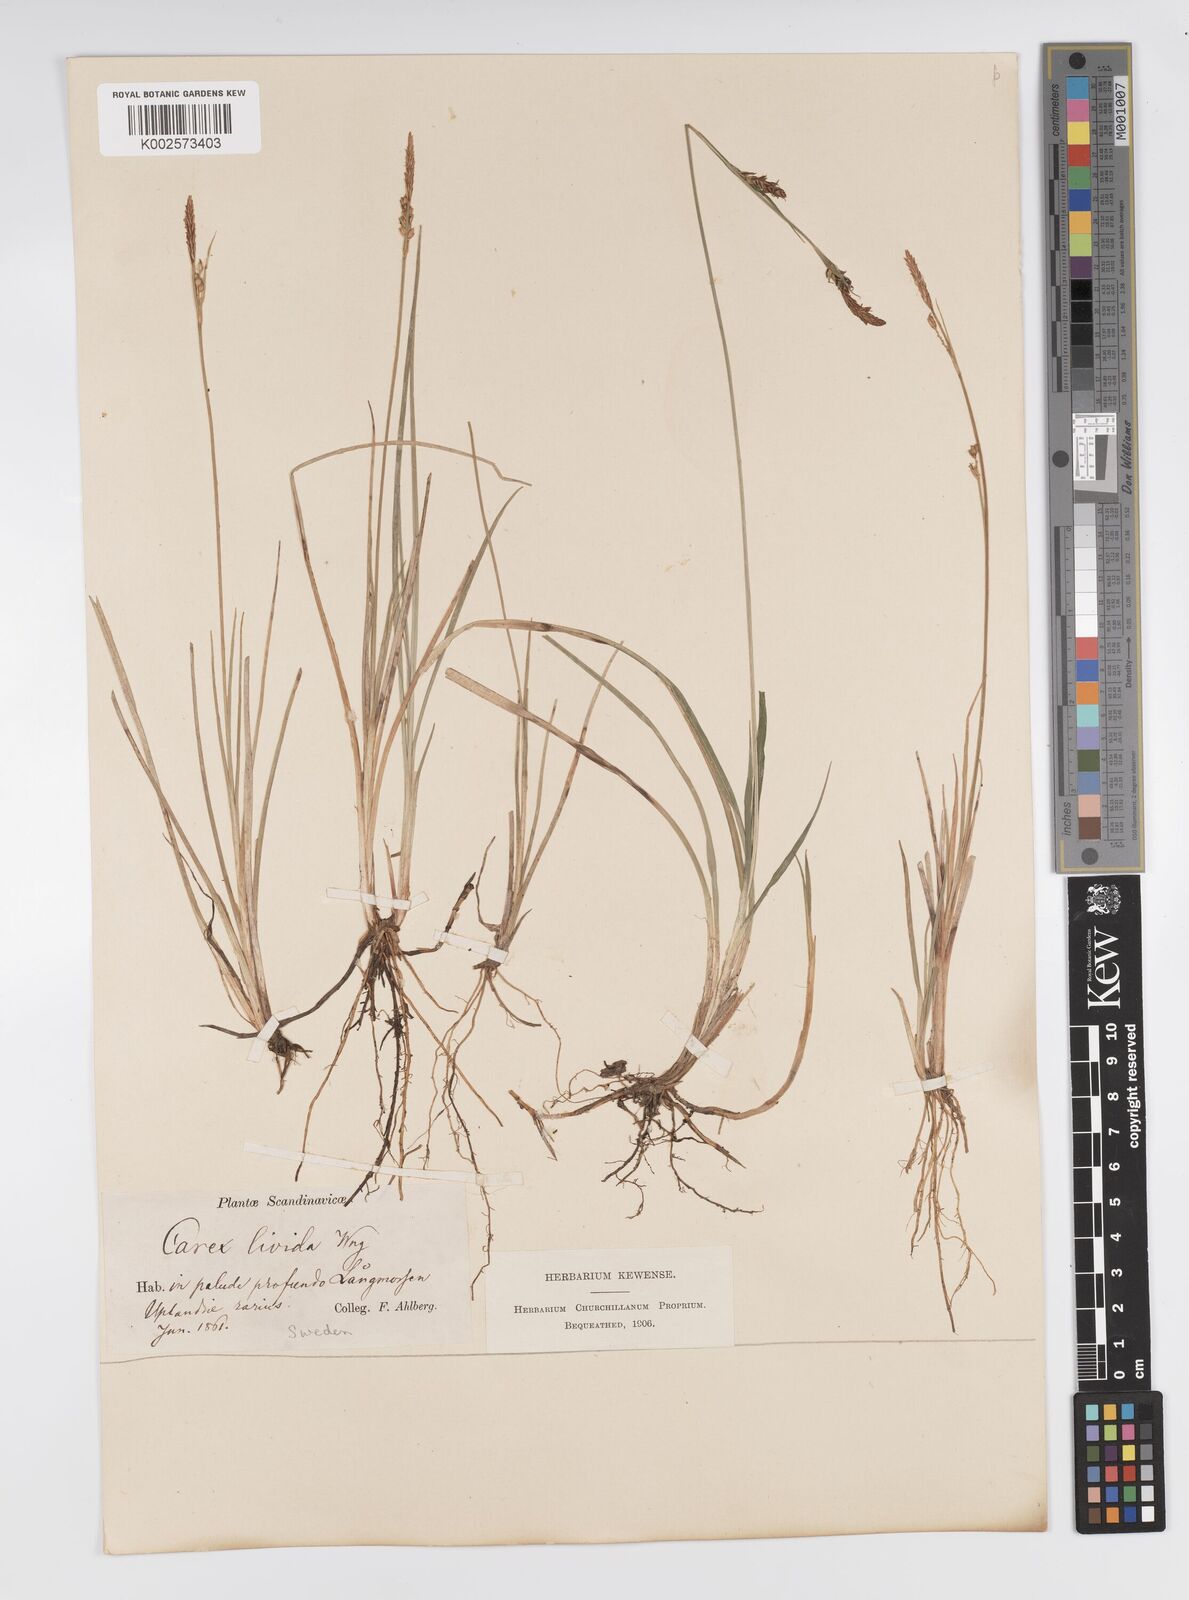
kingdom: Plantae
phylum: Tracheophyta
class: Liliopsida
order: Poales
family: Cyperaceae
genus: Carex
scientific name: Carex livida
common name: Livid sedge
